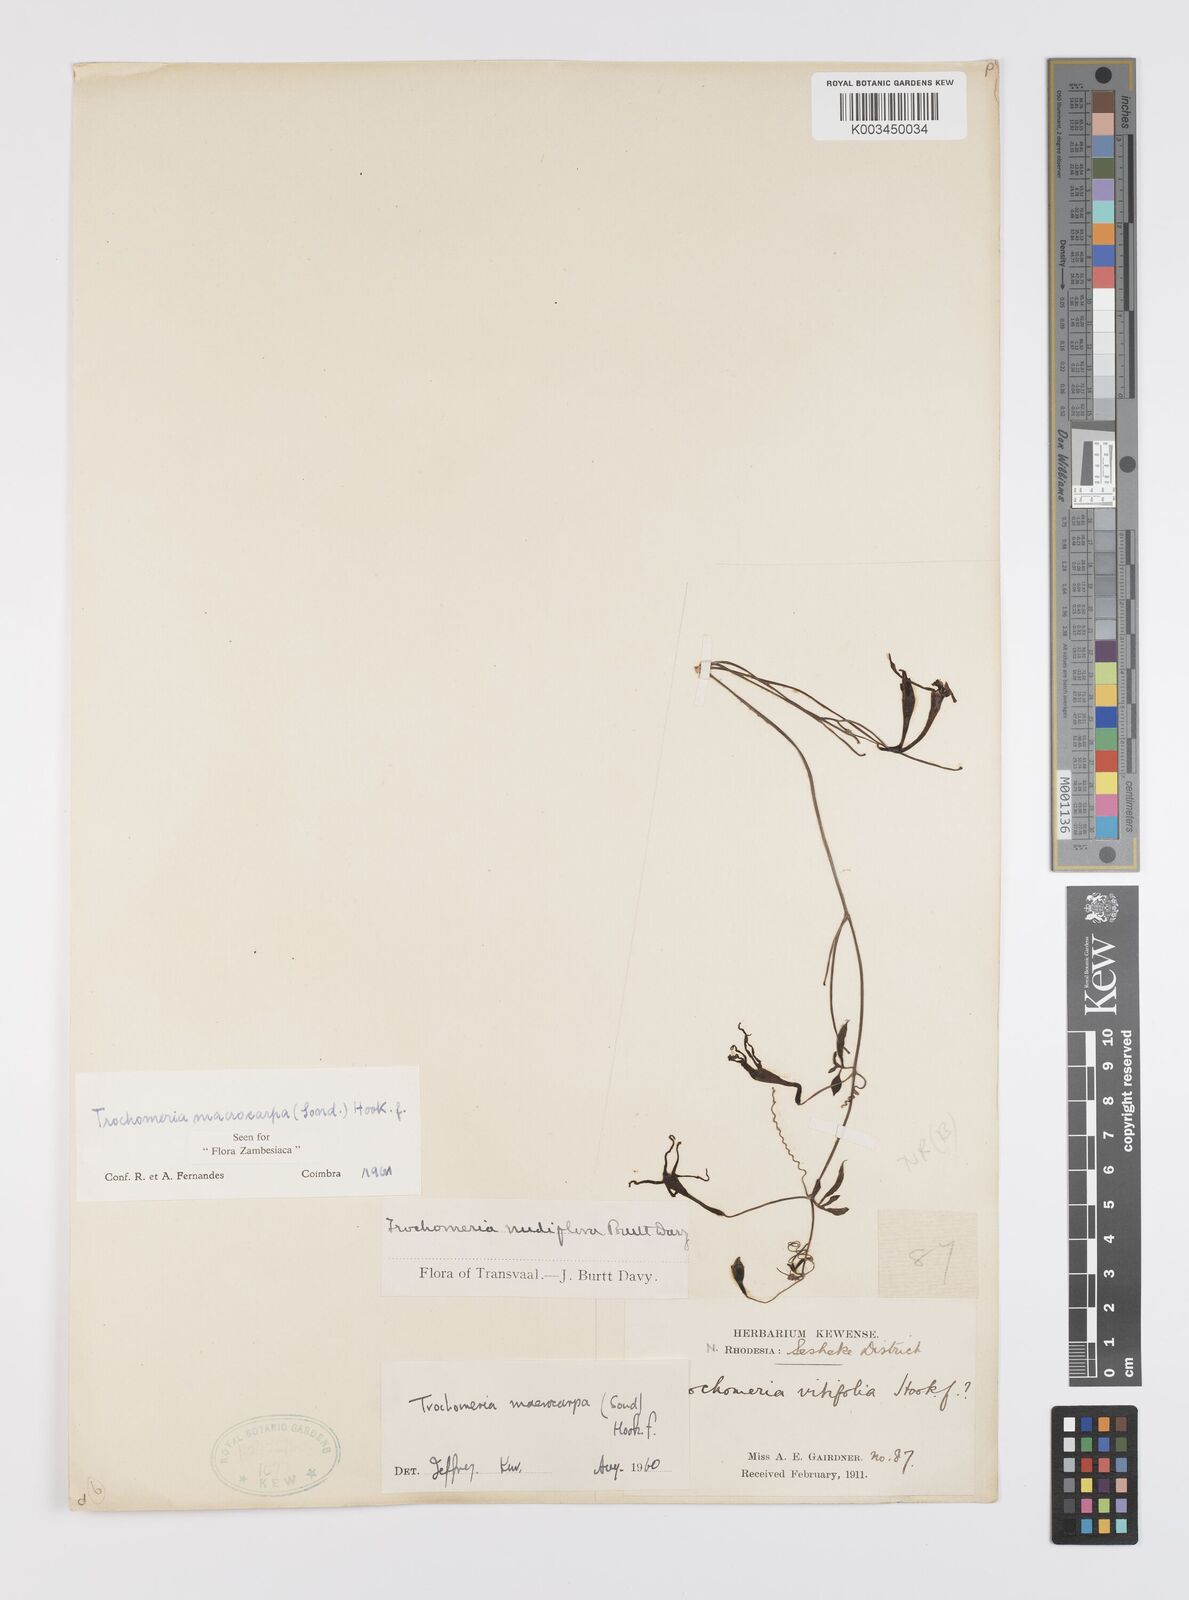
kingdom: Plantae
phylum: Tracheophyta
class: Magnoliopsida
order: Cucurbitales
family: Cucurbitaceae
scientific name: Cucurbitaceae
